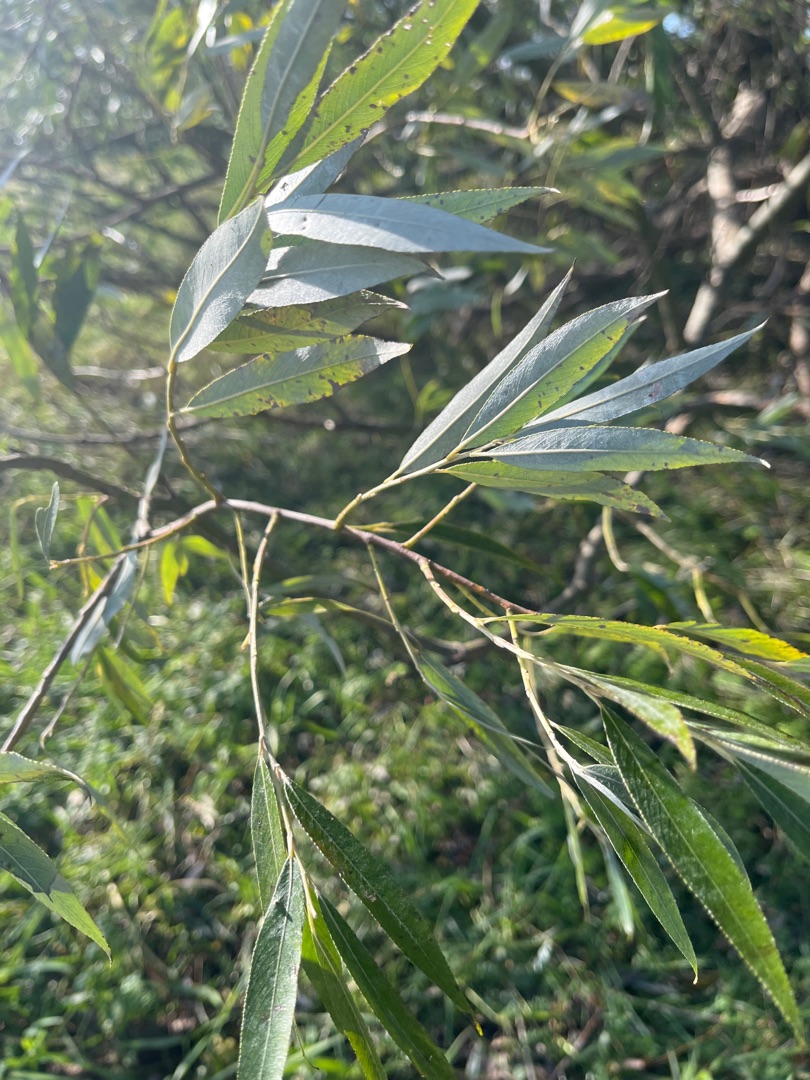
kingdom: Plantae
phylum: Tracheophyta
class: Magnoliopsida
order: Malpighiales
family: Salicaceae
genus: Salix
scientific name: Salix alba
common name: Hvid-pil
